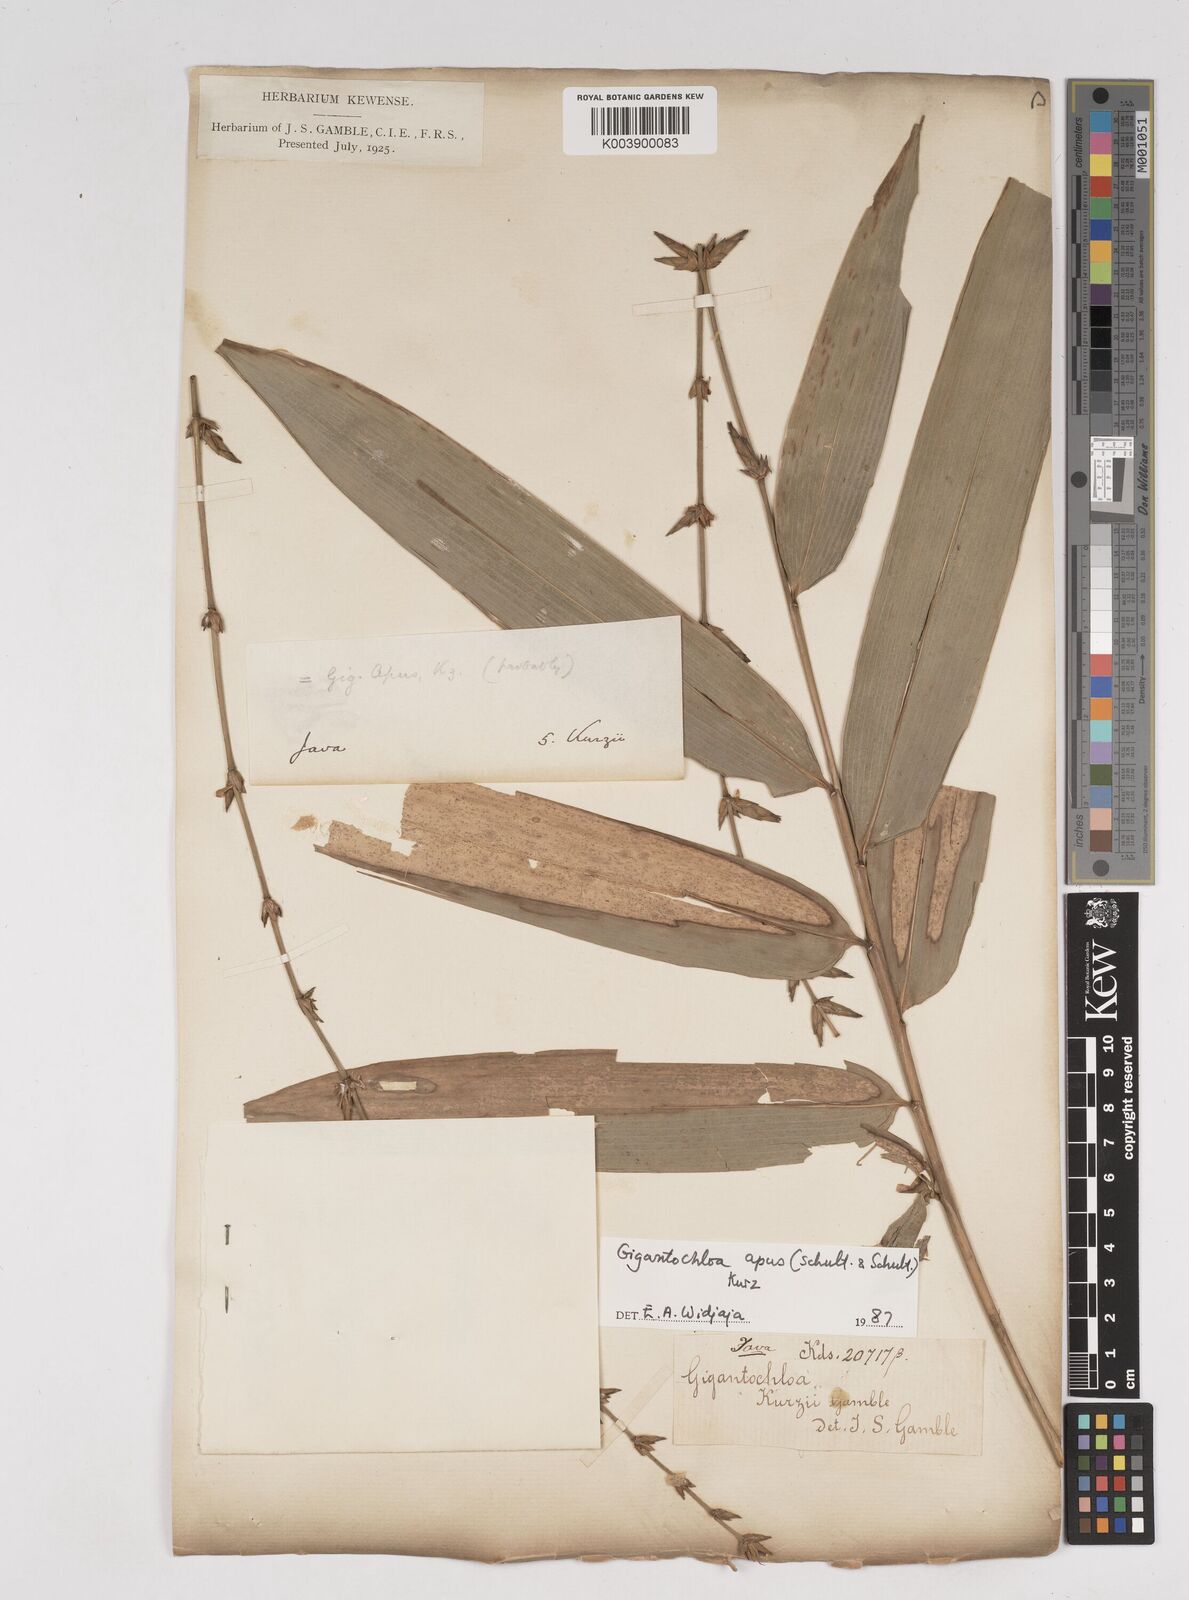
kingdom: Plantae
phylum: Tracheophyta
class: Liliopsida
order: Poales
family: Poaceae
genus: Gigantochloa
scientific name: Gigantochloa apus
